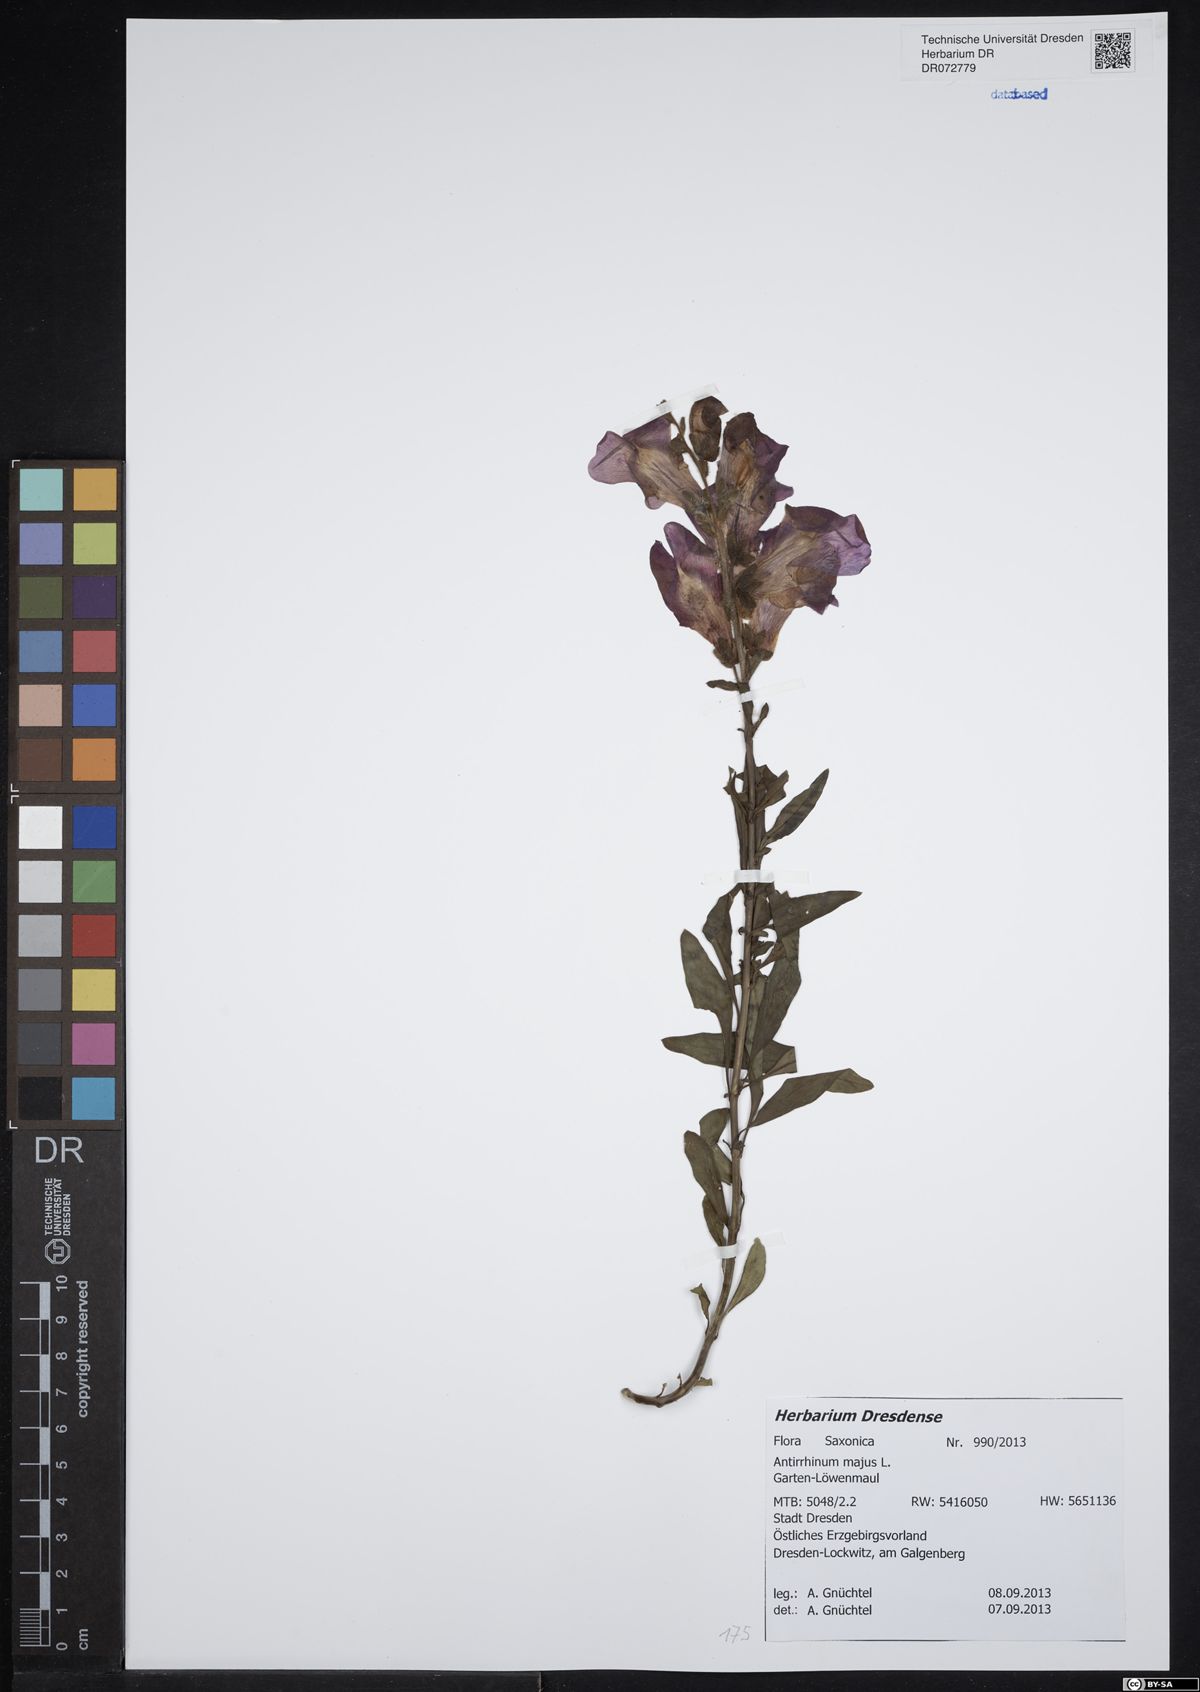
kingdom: Plantae
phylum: Tracheophyta
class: Magnoliopsida
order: Lamiales
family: Plantaginaceae
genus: Antirrhinum
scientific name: Antirrhinum majus
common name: Snapdragon
